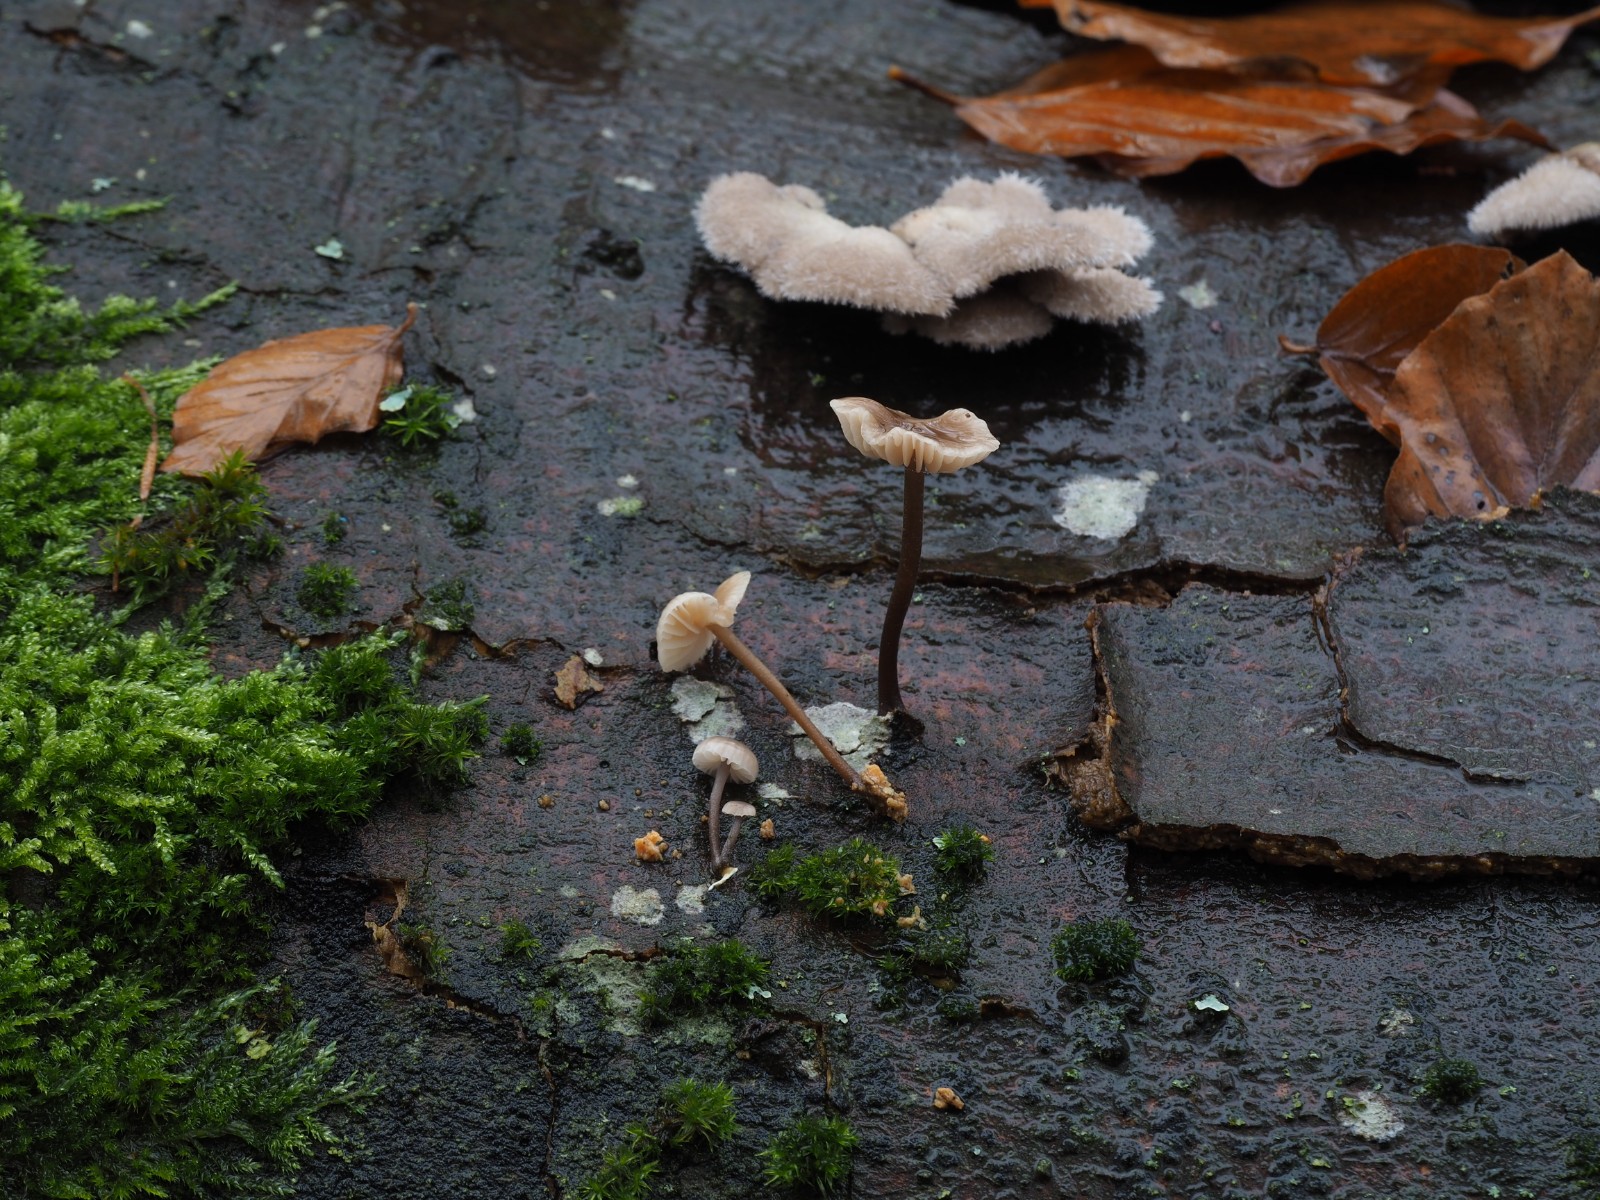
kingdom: Fungi
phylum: Basidiomycota
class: Agaricomycetes
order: Agaricales
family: Omphalotaceae
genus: Mycetinis
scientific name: Mycetinis alliaceus
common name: stor løghat
